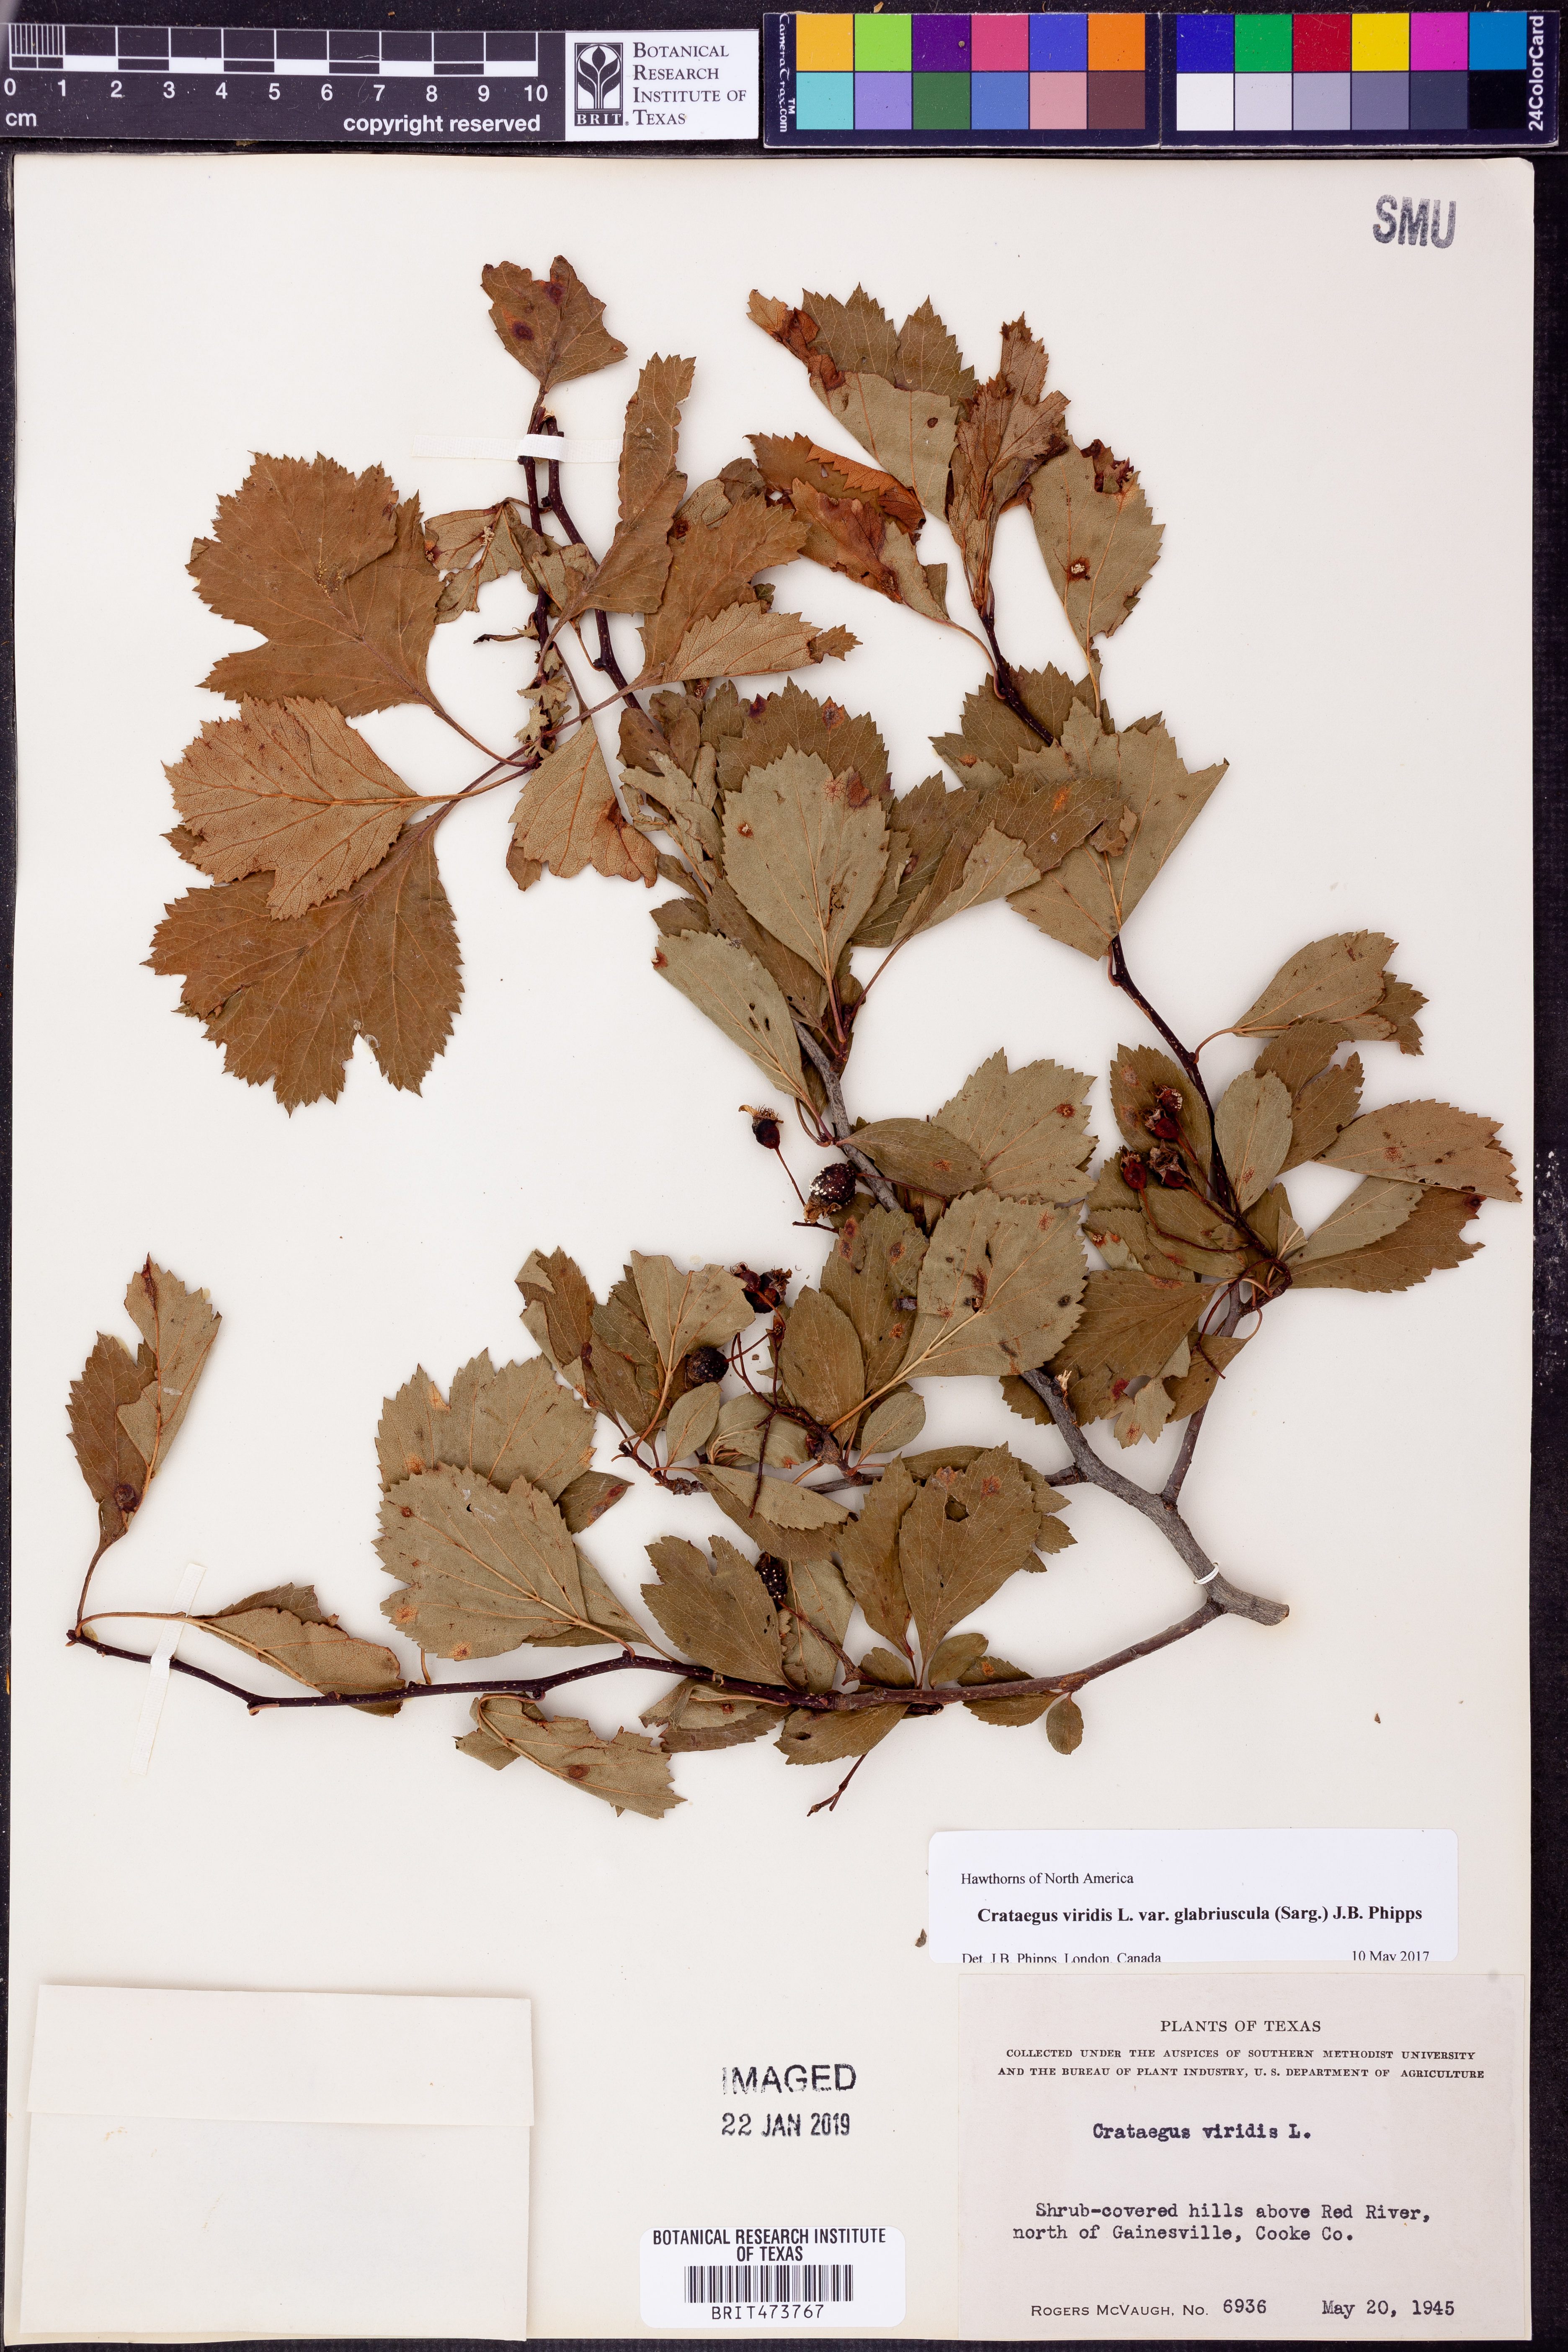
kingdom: Plantae
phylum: Tracheophyta
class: Magnoliopsida
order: Rosales
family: Rosaceae
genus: Crataegus
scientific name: Crataegus viridis
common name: Southernthorn
